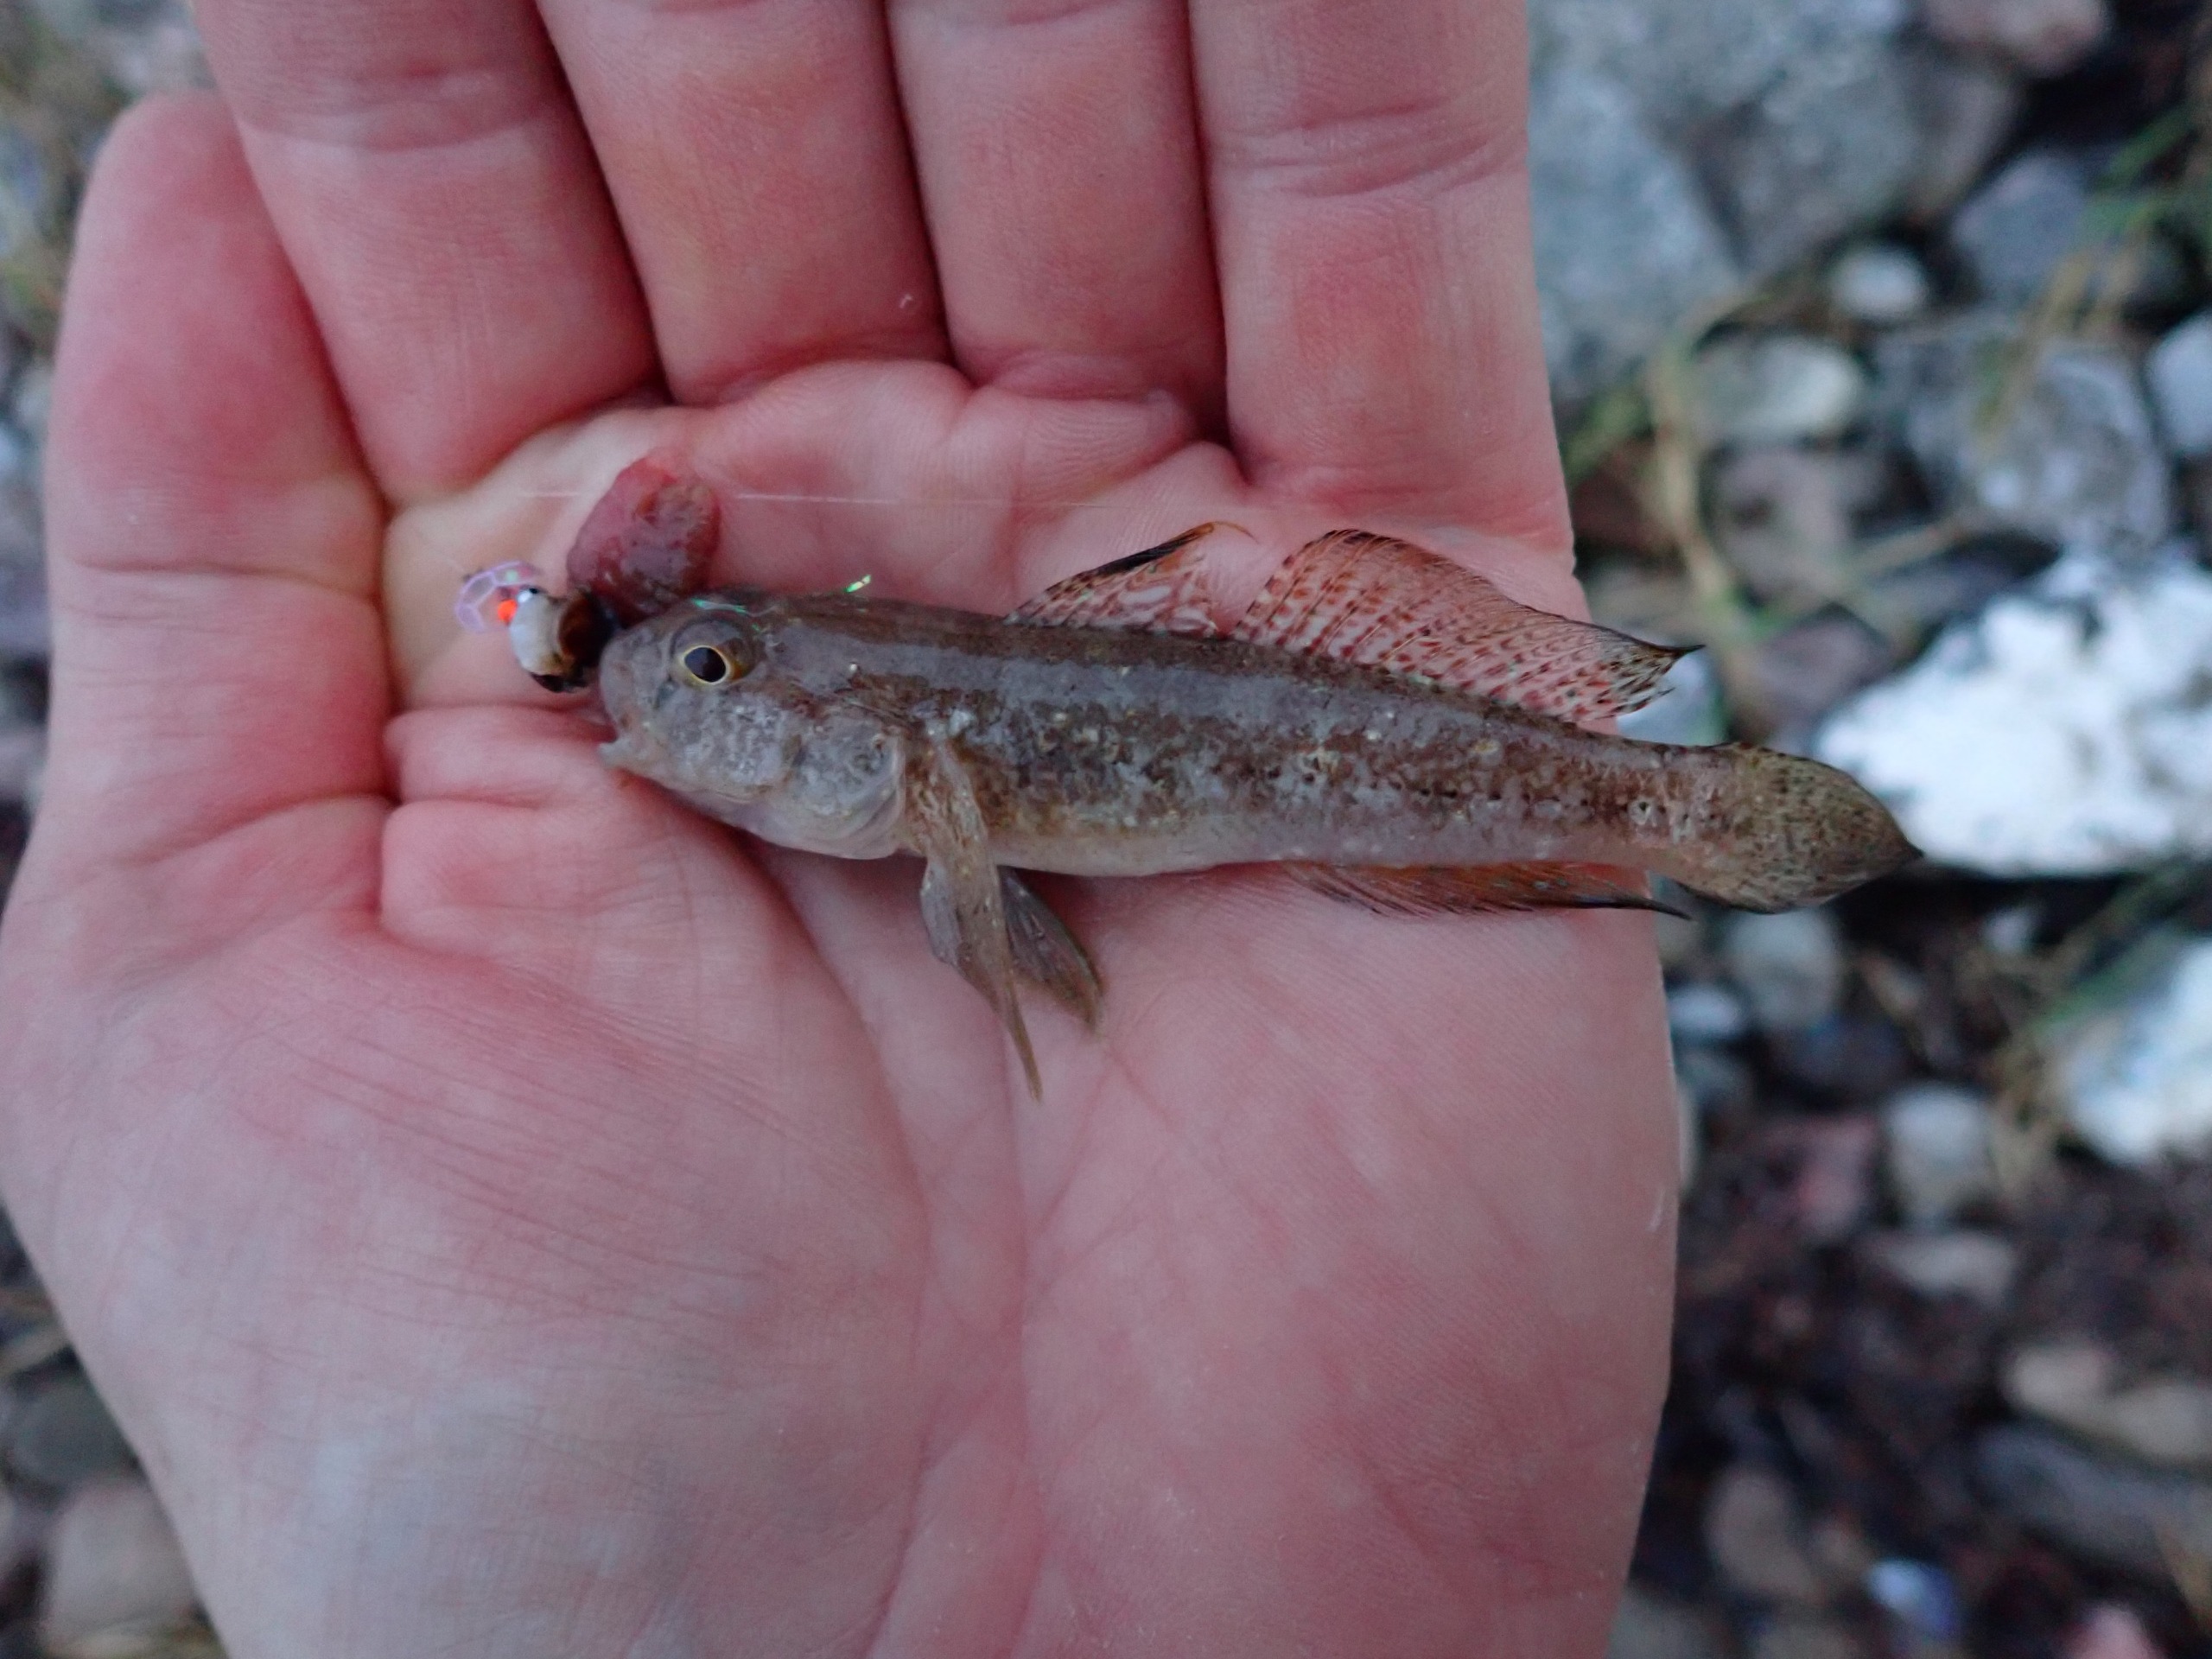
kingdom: Animalia
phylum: Chordata
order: Perciformes
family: Gobiidae
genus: Gobius
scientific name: Gobius niger
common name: Sortkutling
